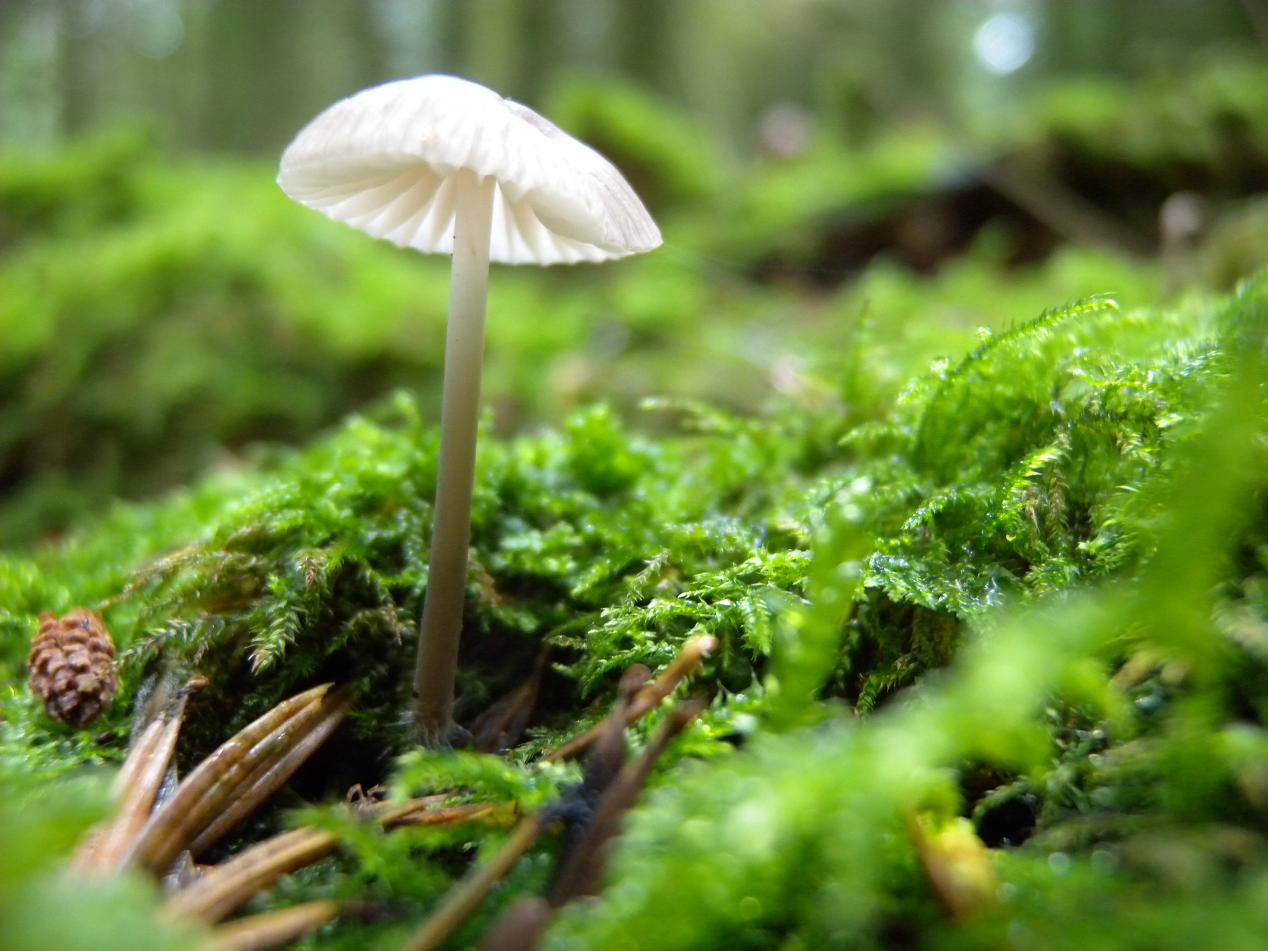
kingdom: Fungi
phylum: Basidiomycota
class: Agaricomycetes
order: Agaricales
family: Mycenaceae
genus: Mycena
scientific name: Mycena abramsii
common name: sommer-huesvamp
